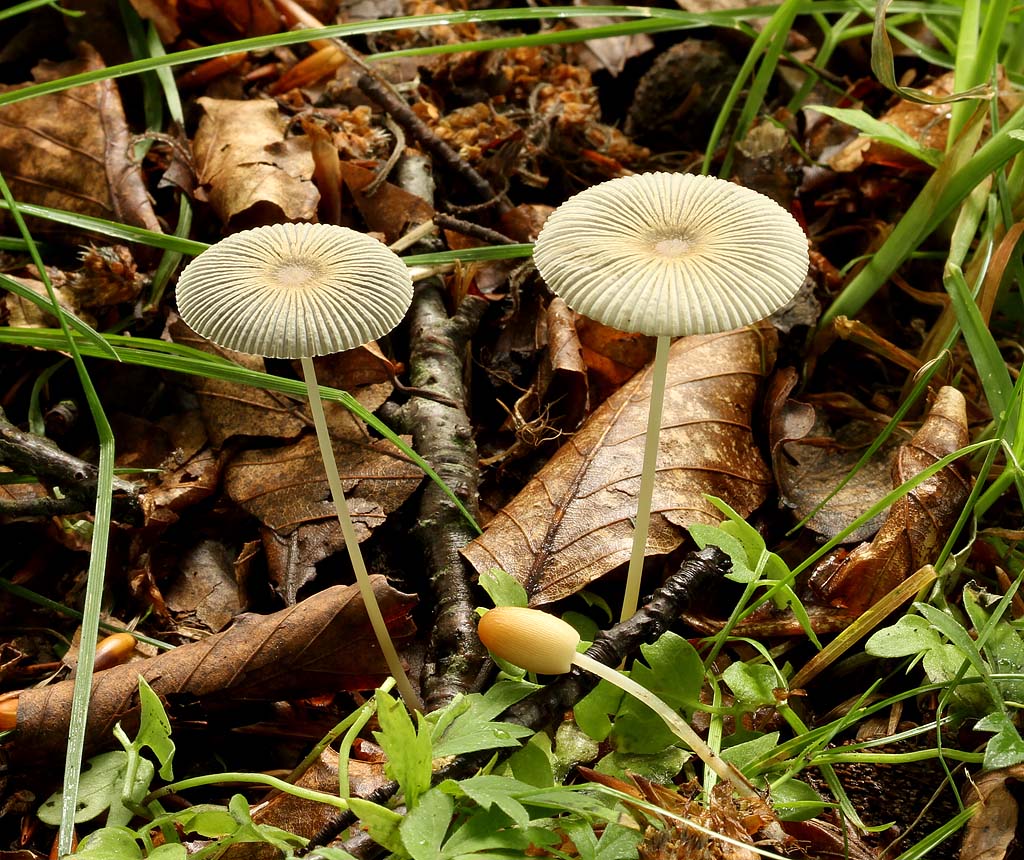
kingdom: Fungi
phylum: Basidiomycota
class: Agaricomycetes
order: Agaricales
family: Psathyrellaceae
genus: Parasola
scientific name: Parasola lactea
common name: glat hjulhat
